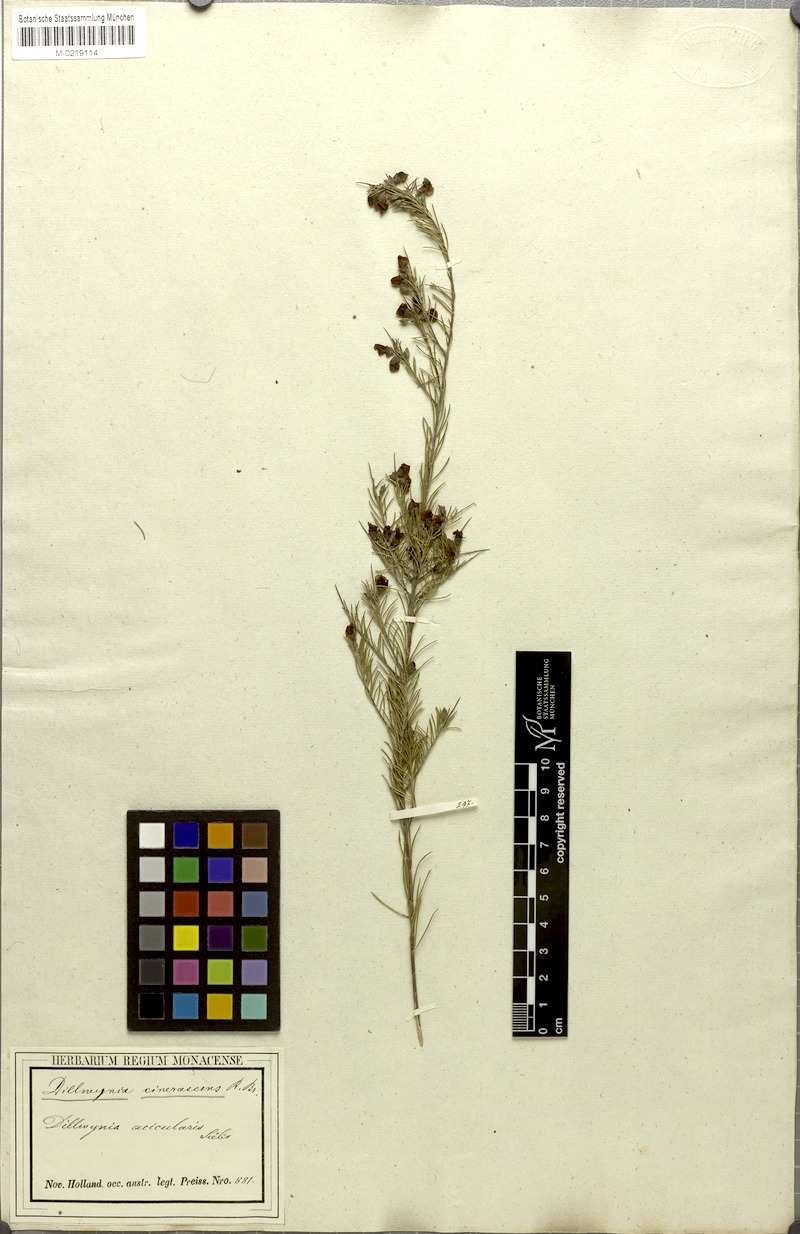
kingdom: Plantae
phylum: Tracheophyta
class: Magnoliopsida
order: Fabales
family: Fabaceae
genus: Dillwynia
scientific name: Dillwynia cinerascens
